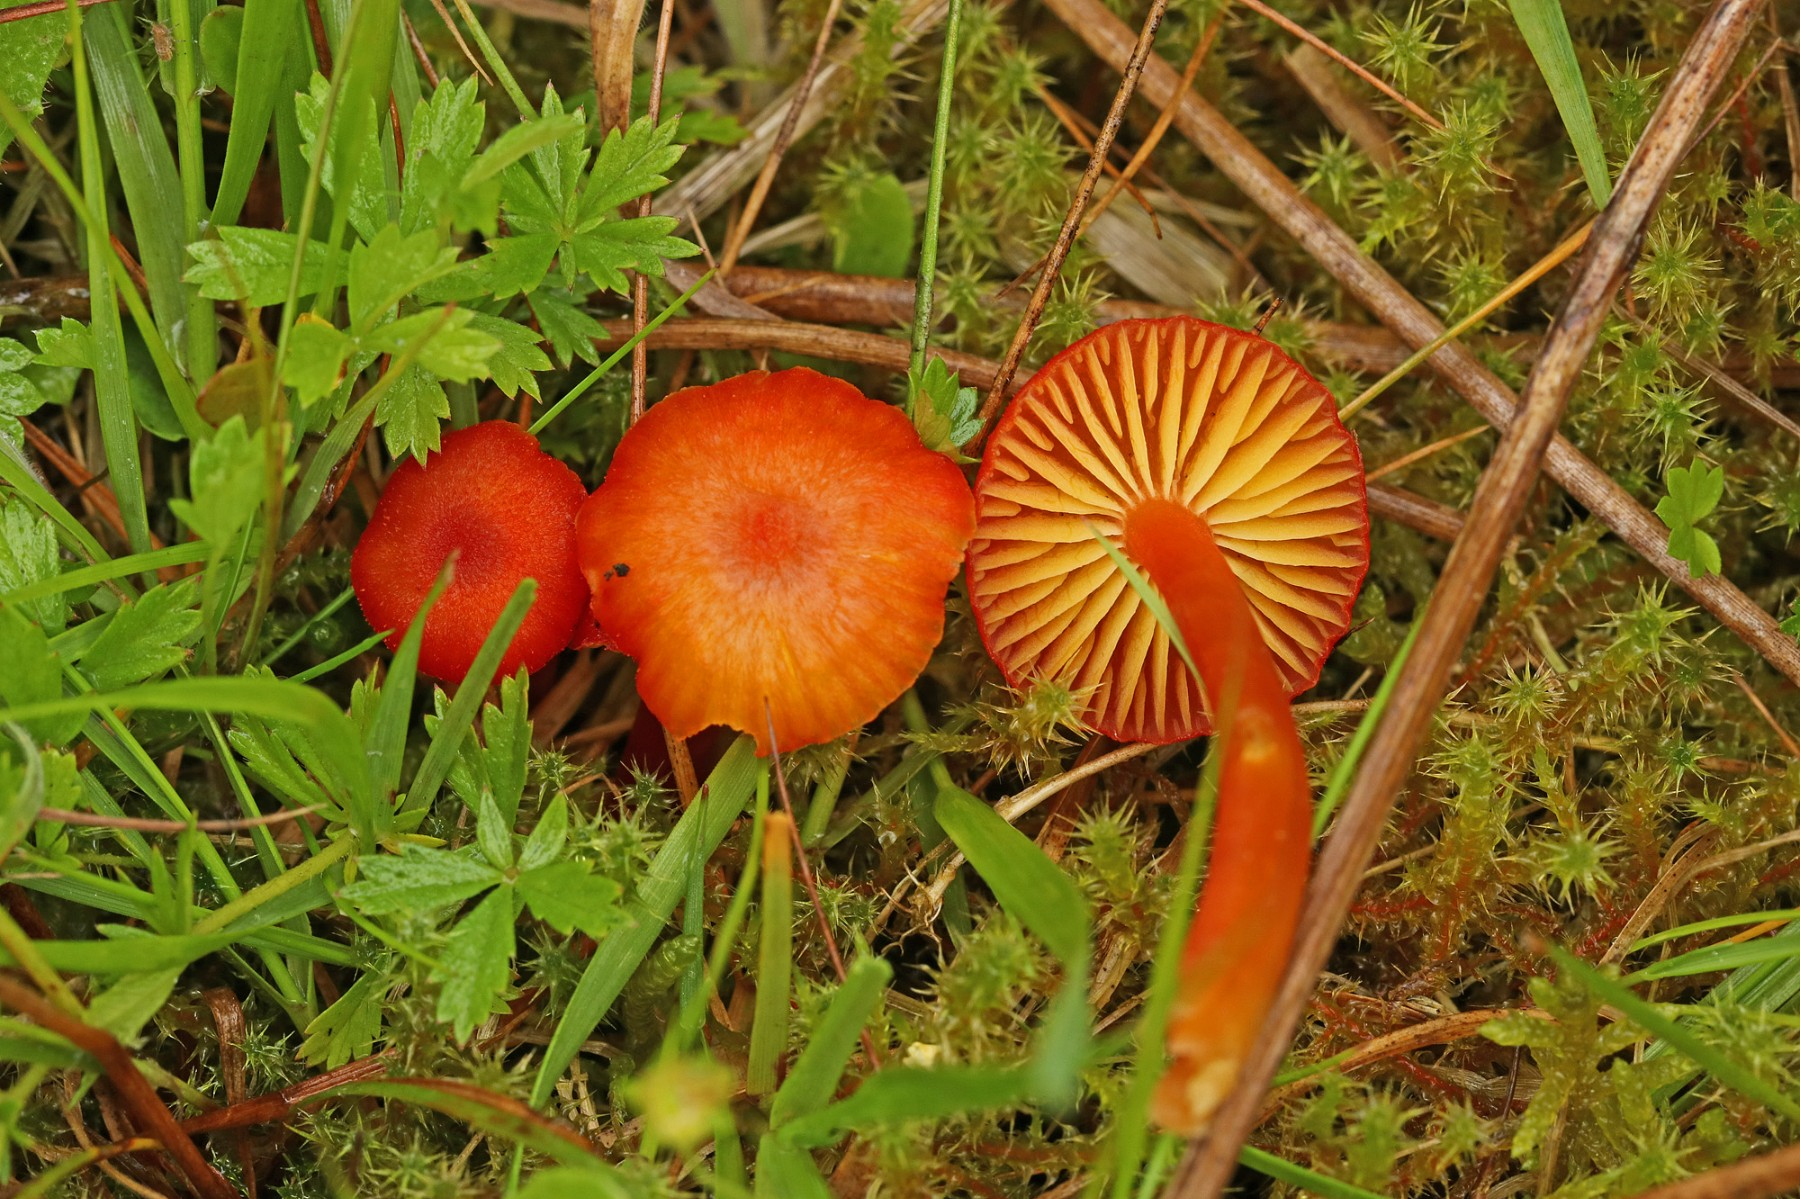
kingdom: Fungi
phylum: Basidiomycota
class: Agaricomycetes
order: Agaricales
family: Hygrophoraceae
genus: Hygrocybe
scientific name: Hygrocybe helobia
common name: hvidløgs-vokshat
